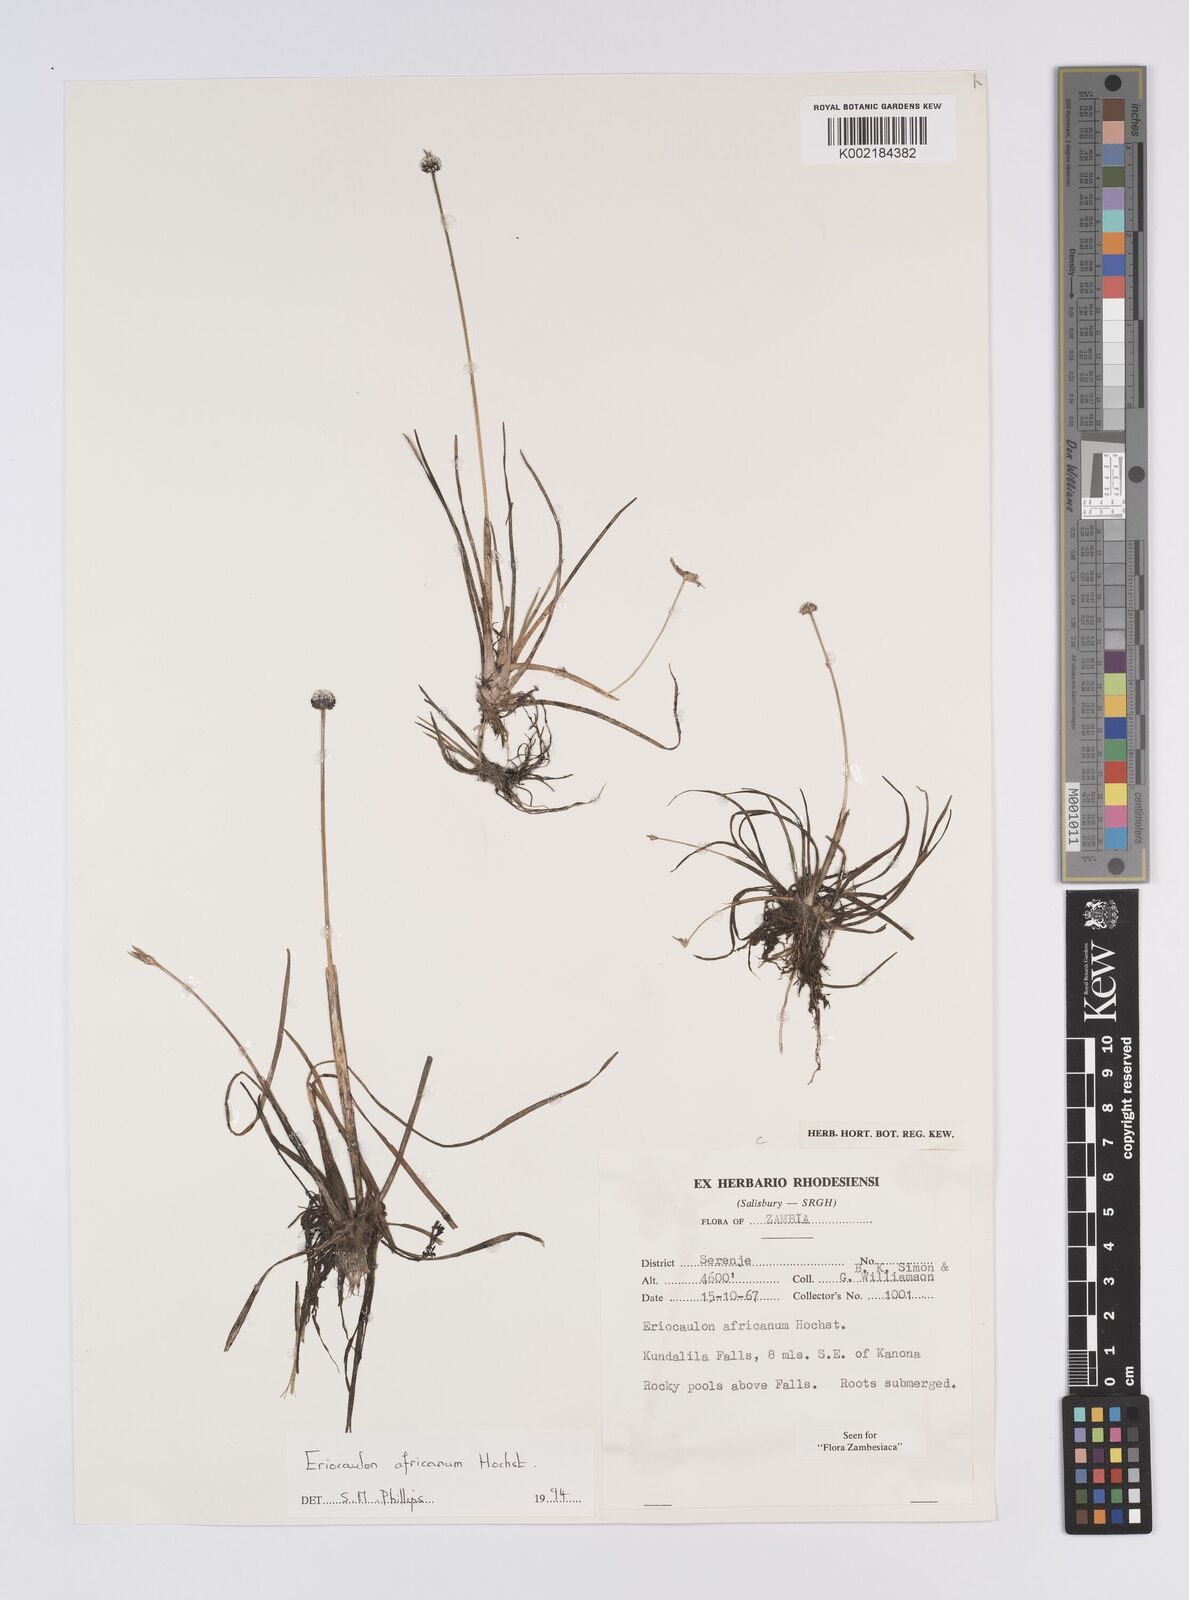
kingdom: Plantae
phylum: Tracheophyta
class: Liliopsida
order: Poales
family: Eriocaulaceae
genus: Eriocaulon
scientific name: Eriocaulon africanum
